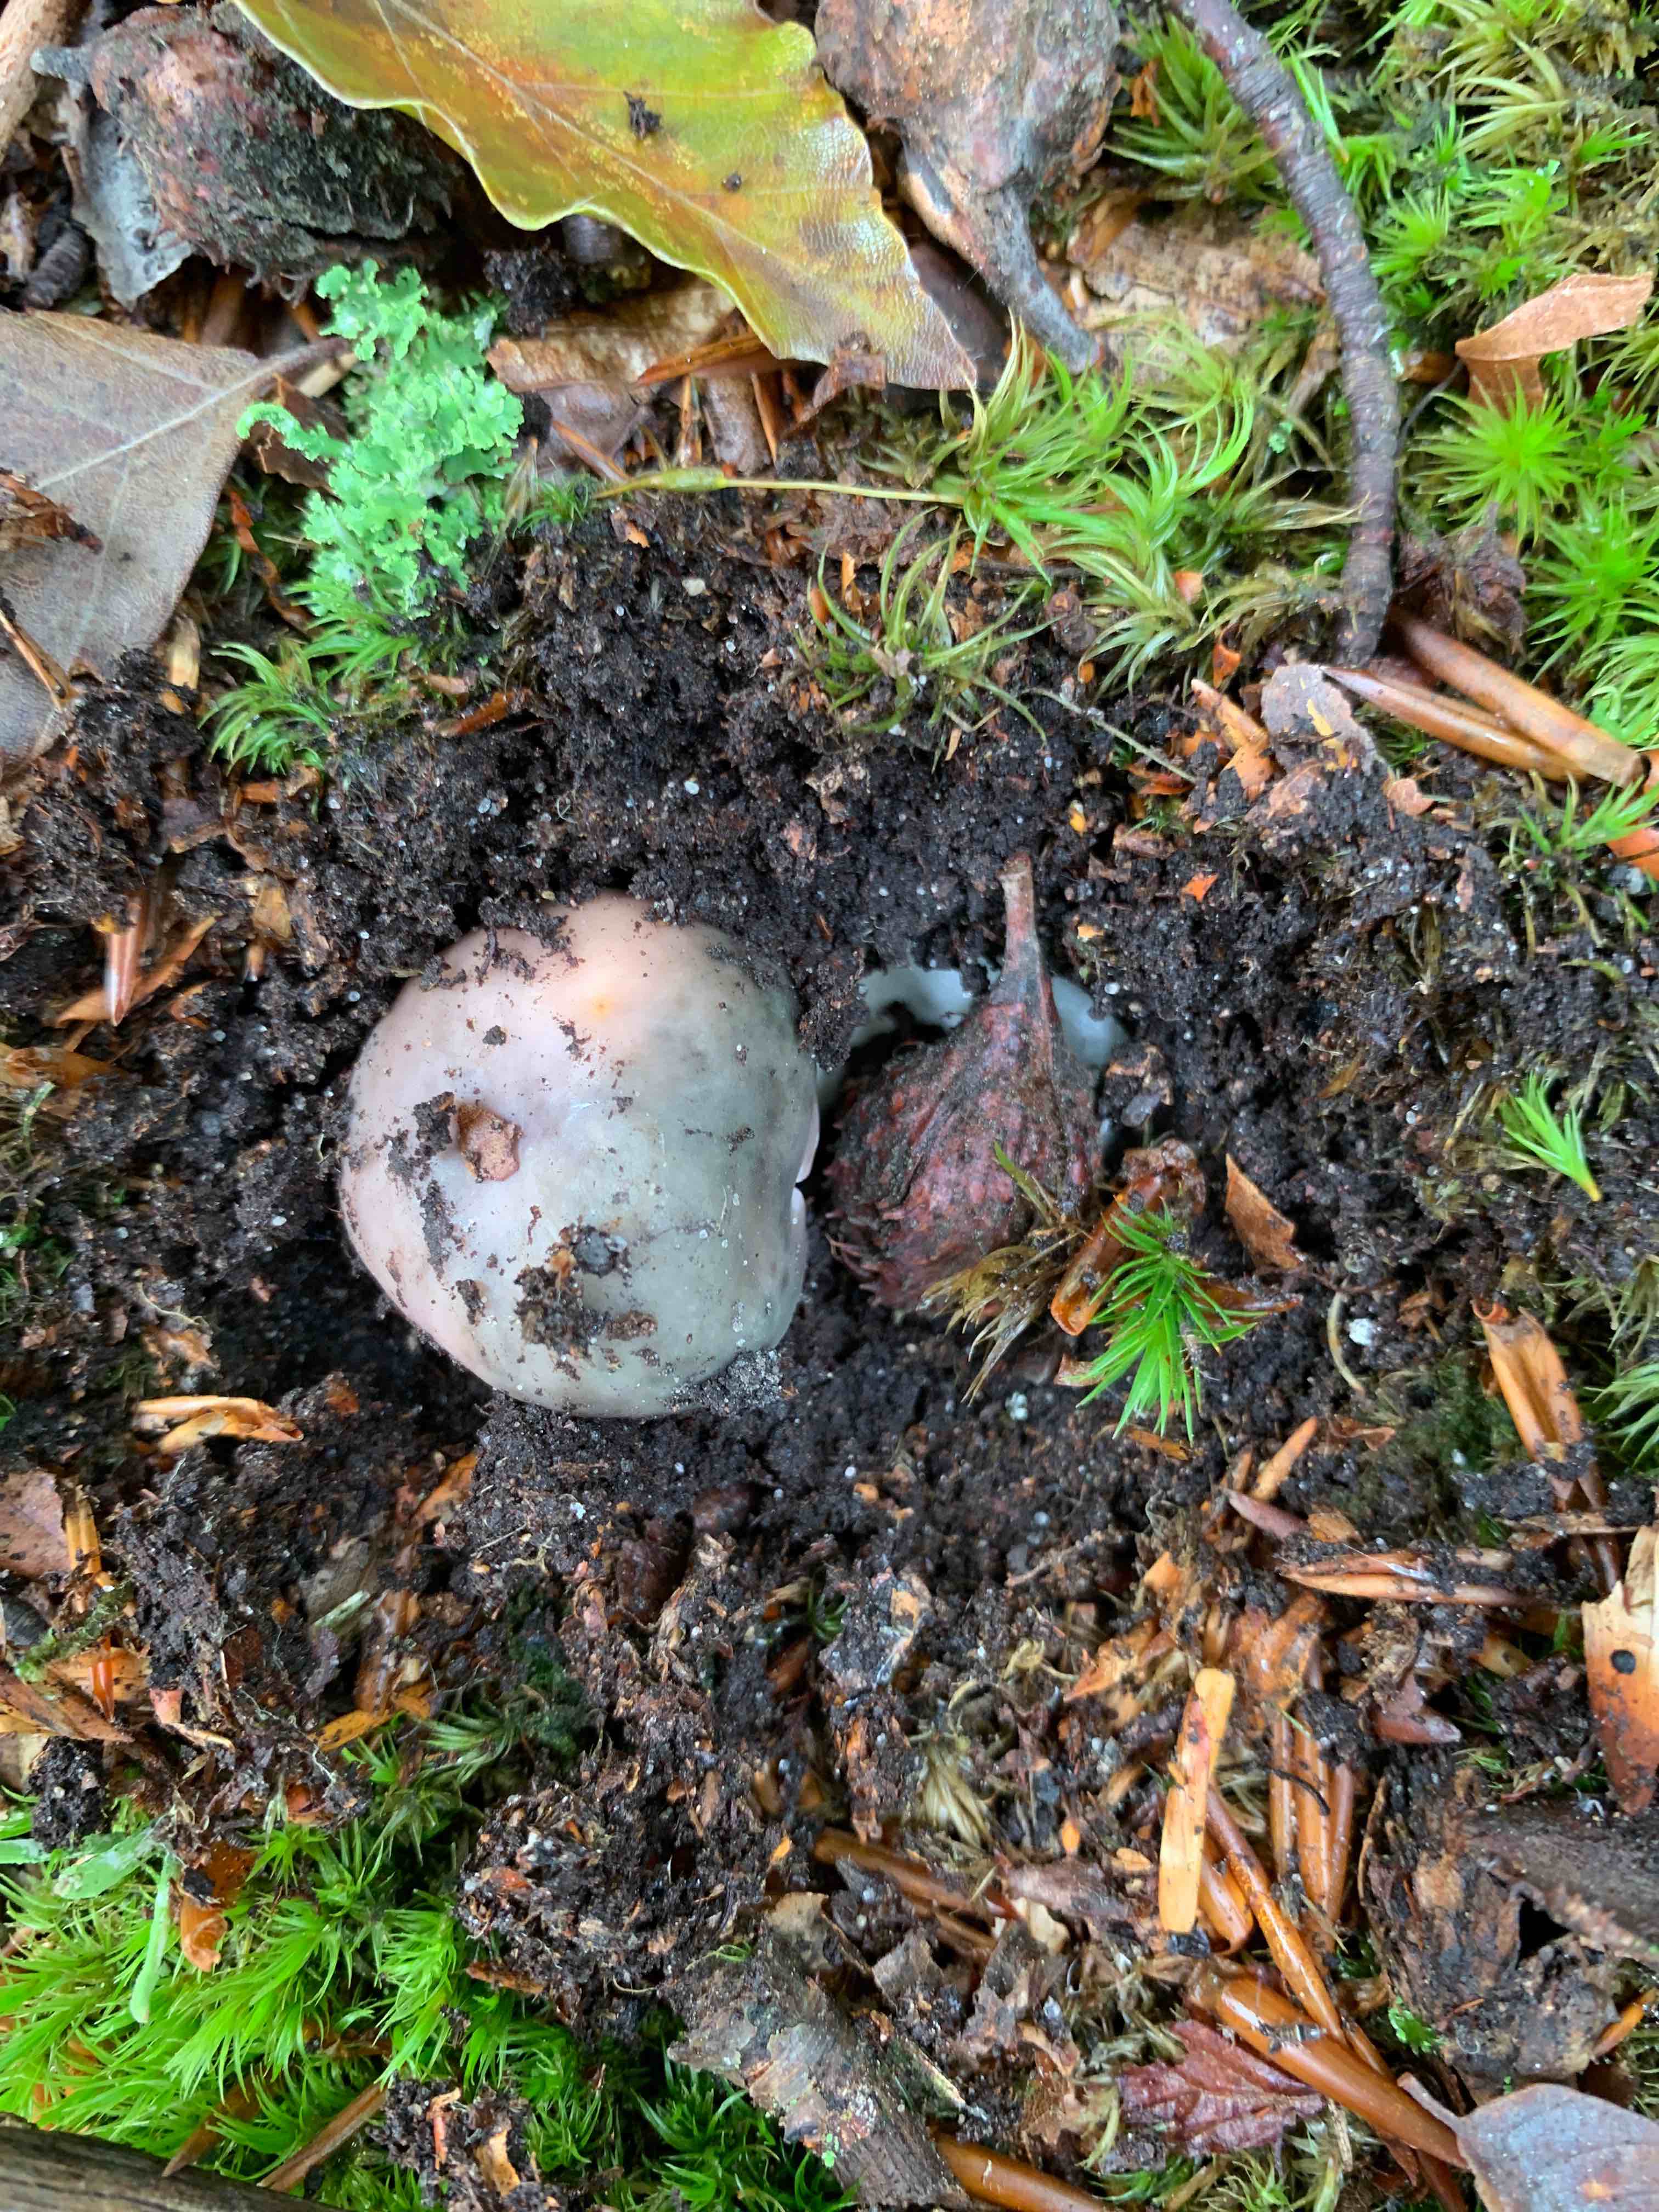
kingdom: Fungi
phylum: Basidiomycota
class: Agaricomycetes
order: Russulales
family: Russulaceae
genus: Russula
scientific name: Russula cyanoxantha
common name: broget skørhat
